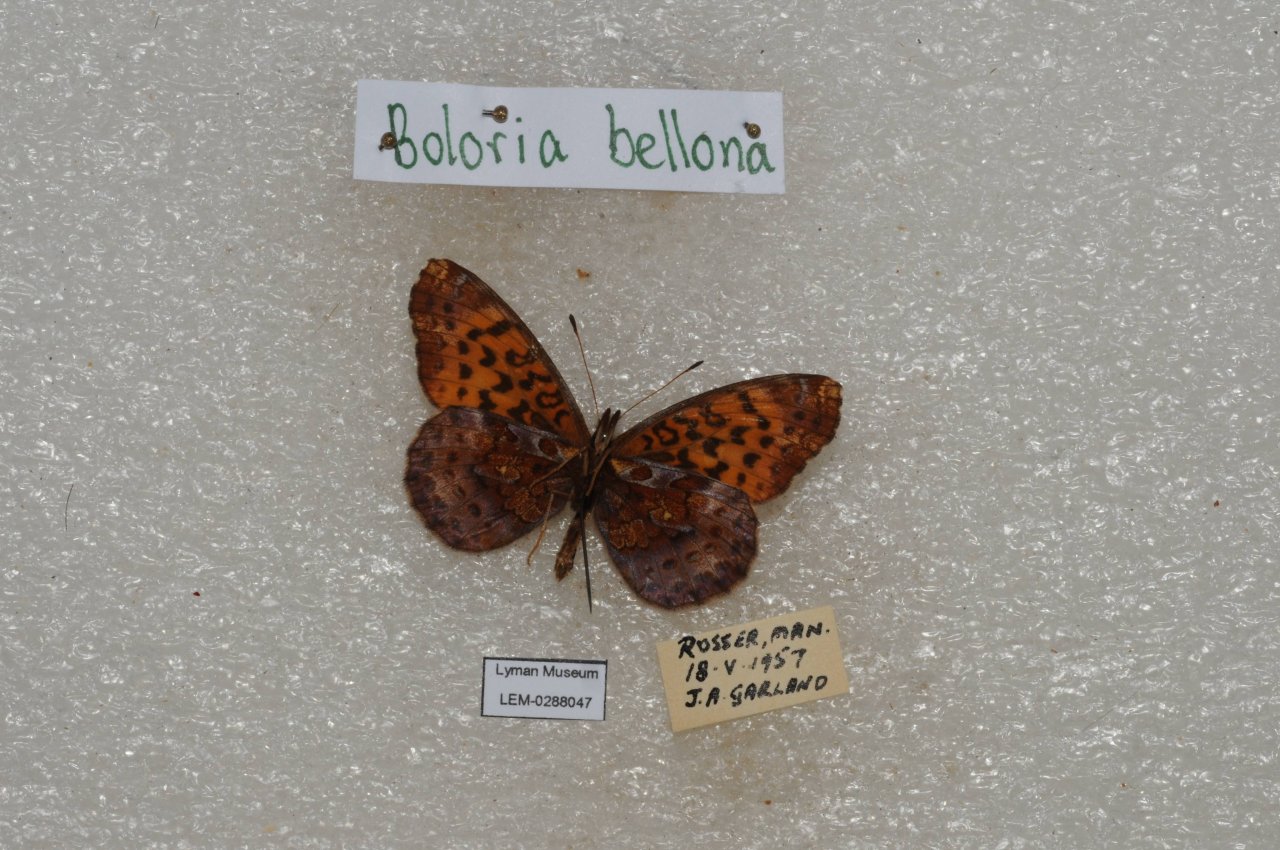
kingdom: Animalia
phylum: Arthropoda
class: Insecta
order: Lepidoptera
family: Nymphalidae
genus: Clossiana
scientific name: Clossiana toddi
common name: Meadow Fritillary
